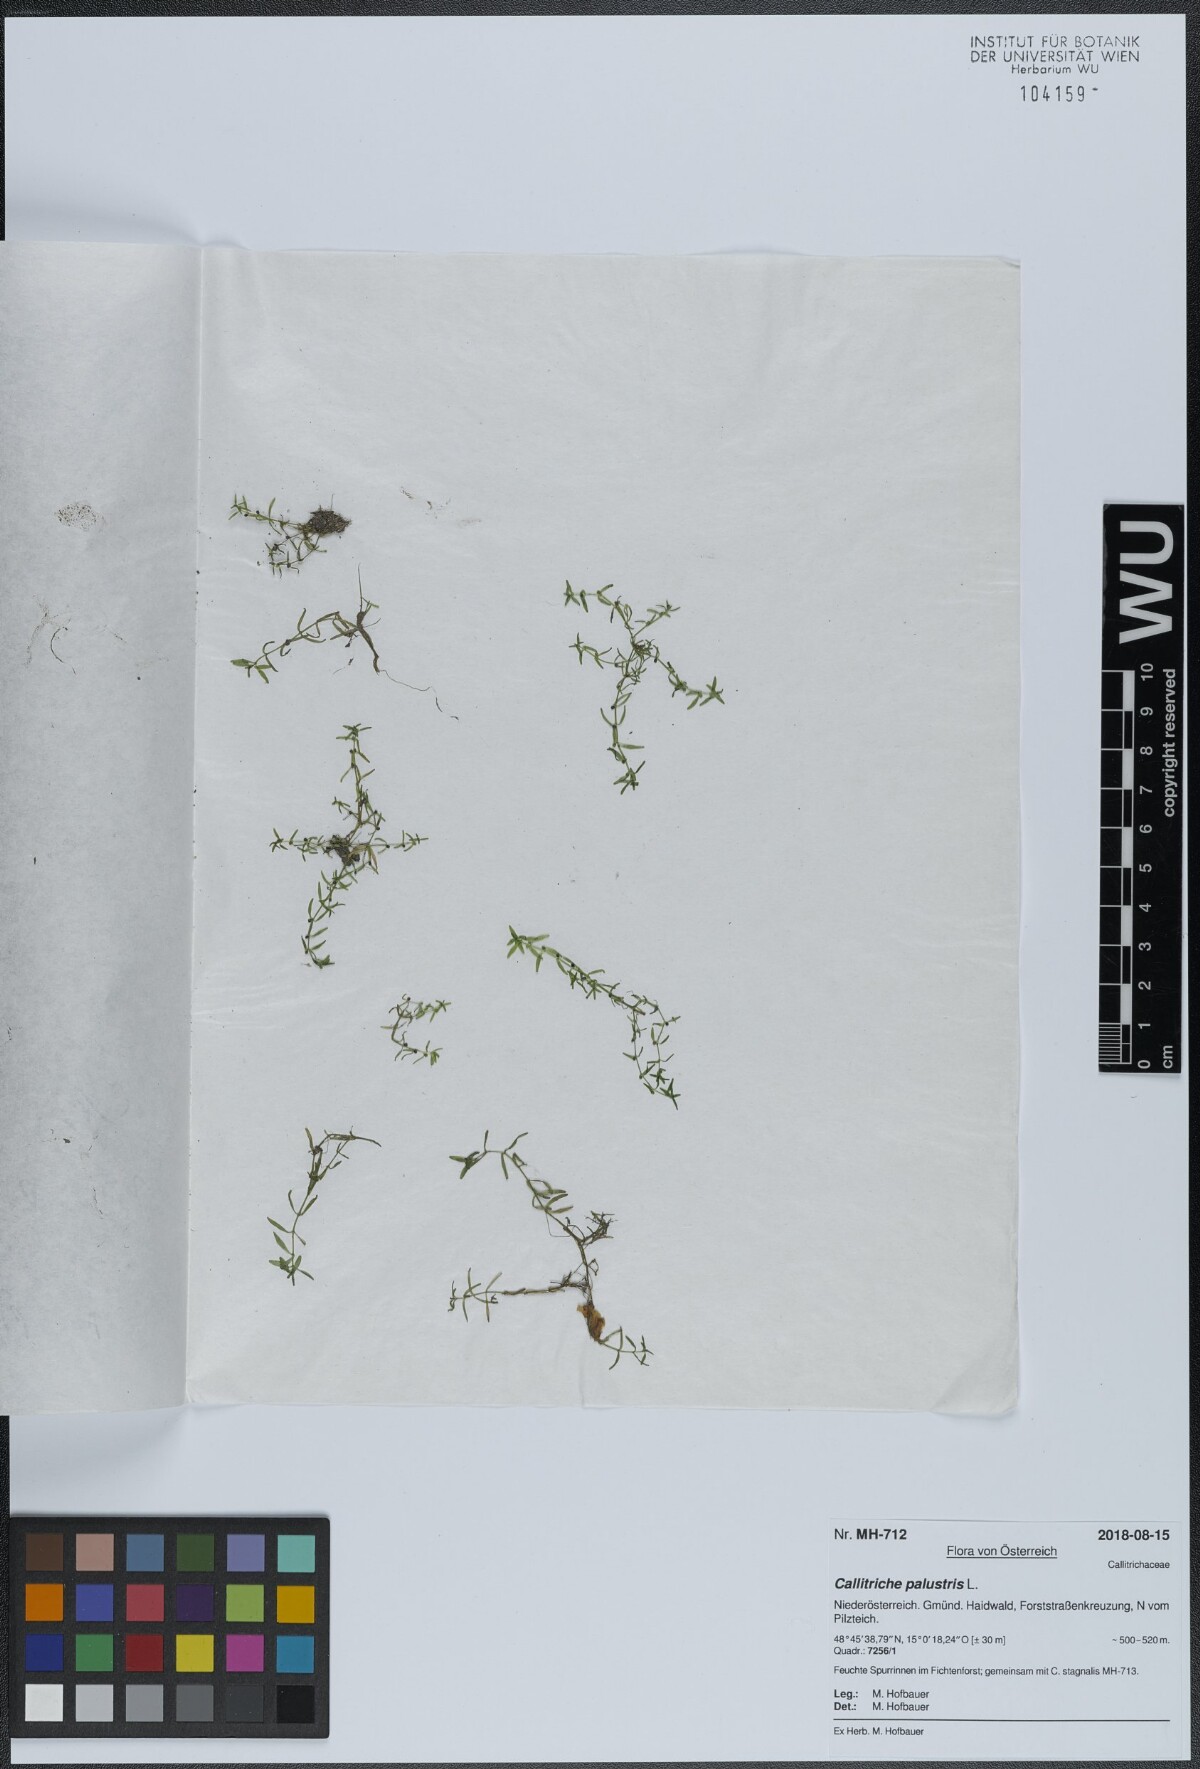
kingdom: Plantae
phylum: Tracheophyta
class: Magnoliopsida
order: Lamiales
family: Plantaginaceae
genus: Callitriche
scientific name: Callitriche palustris
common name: Spring water-starwort
